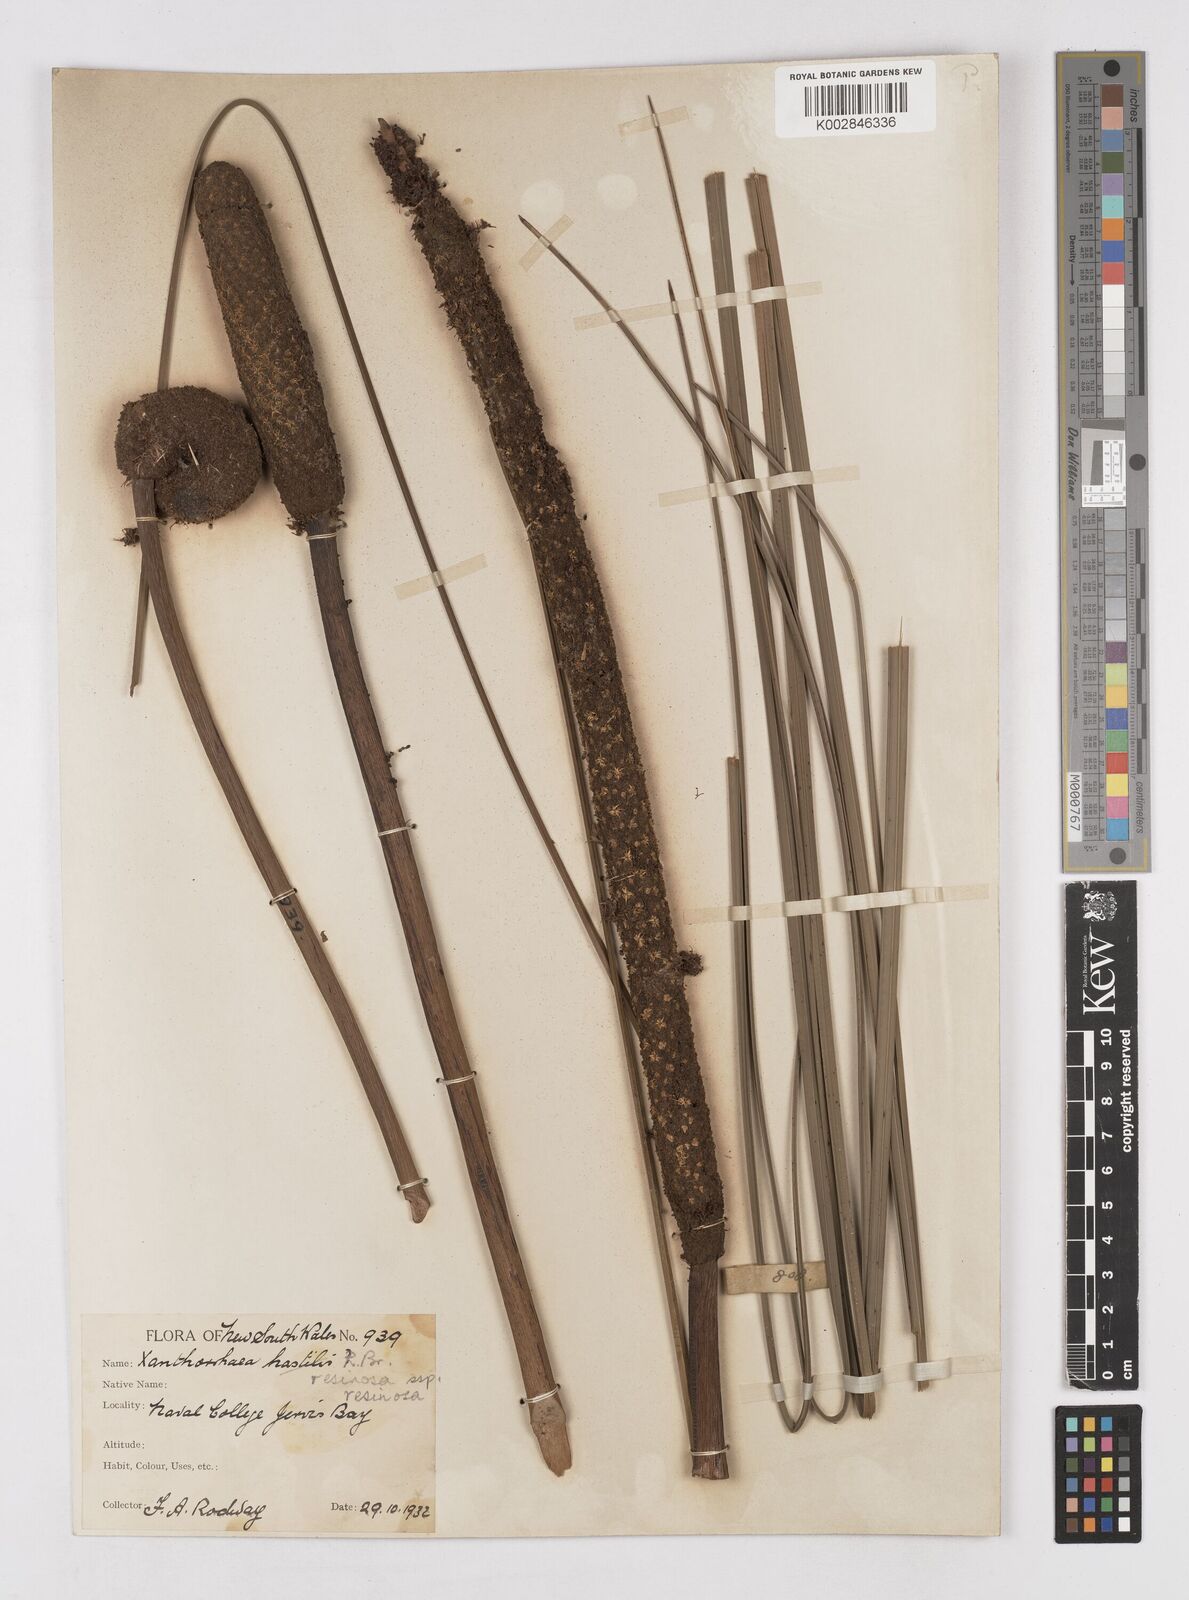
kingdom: Plantae
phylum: Tracheophyta
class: Liliopsida
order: Asparagales
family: Asphodelaceae
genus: Xanthorrhoea
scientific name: Xanthorrhoea resinosa
